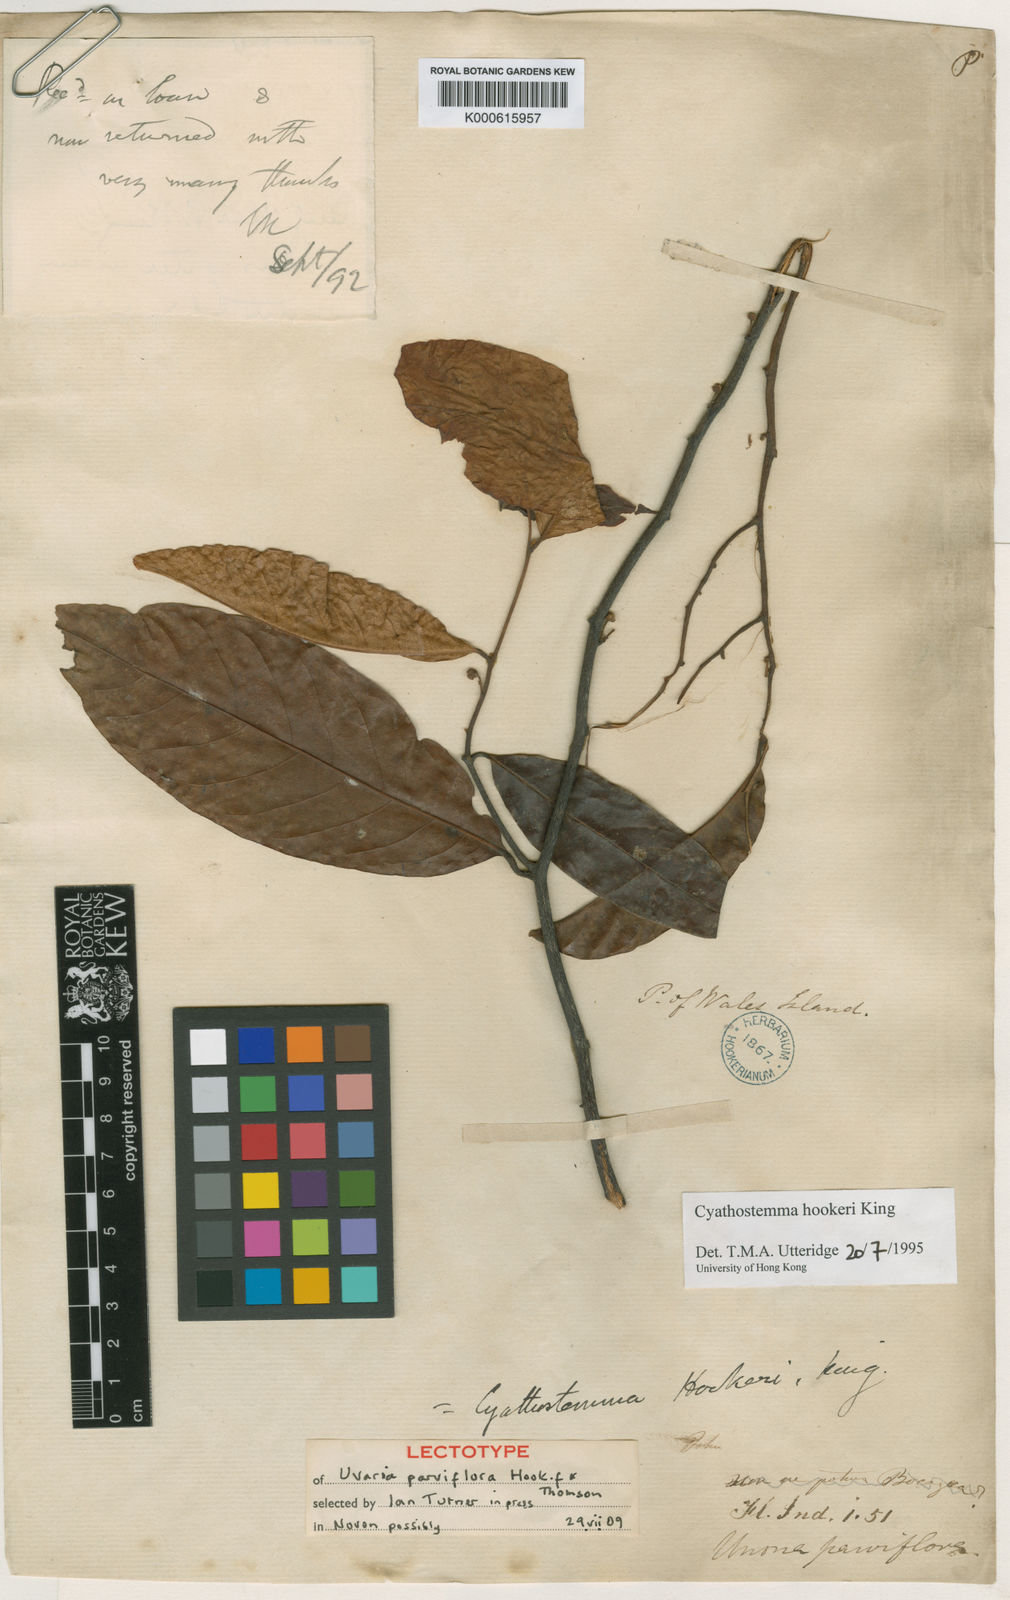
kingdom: Plantae
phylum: Tracheophyta
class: Magnoliopsida
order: Magnoliales
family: Annonaceae
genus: Uvaria
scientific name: Uvaria clementis
